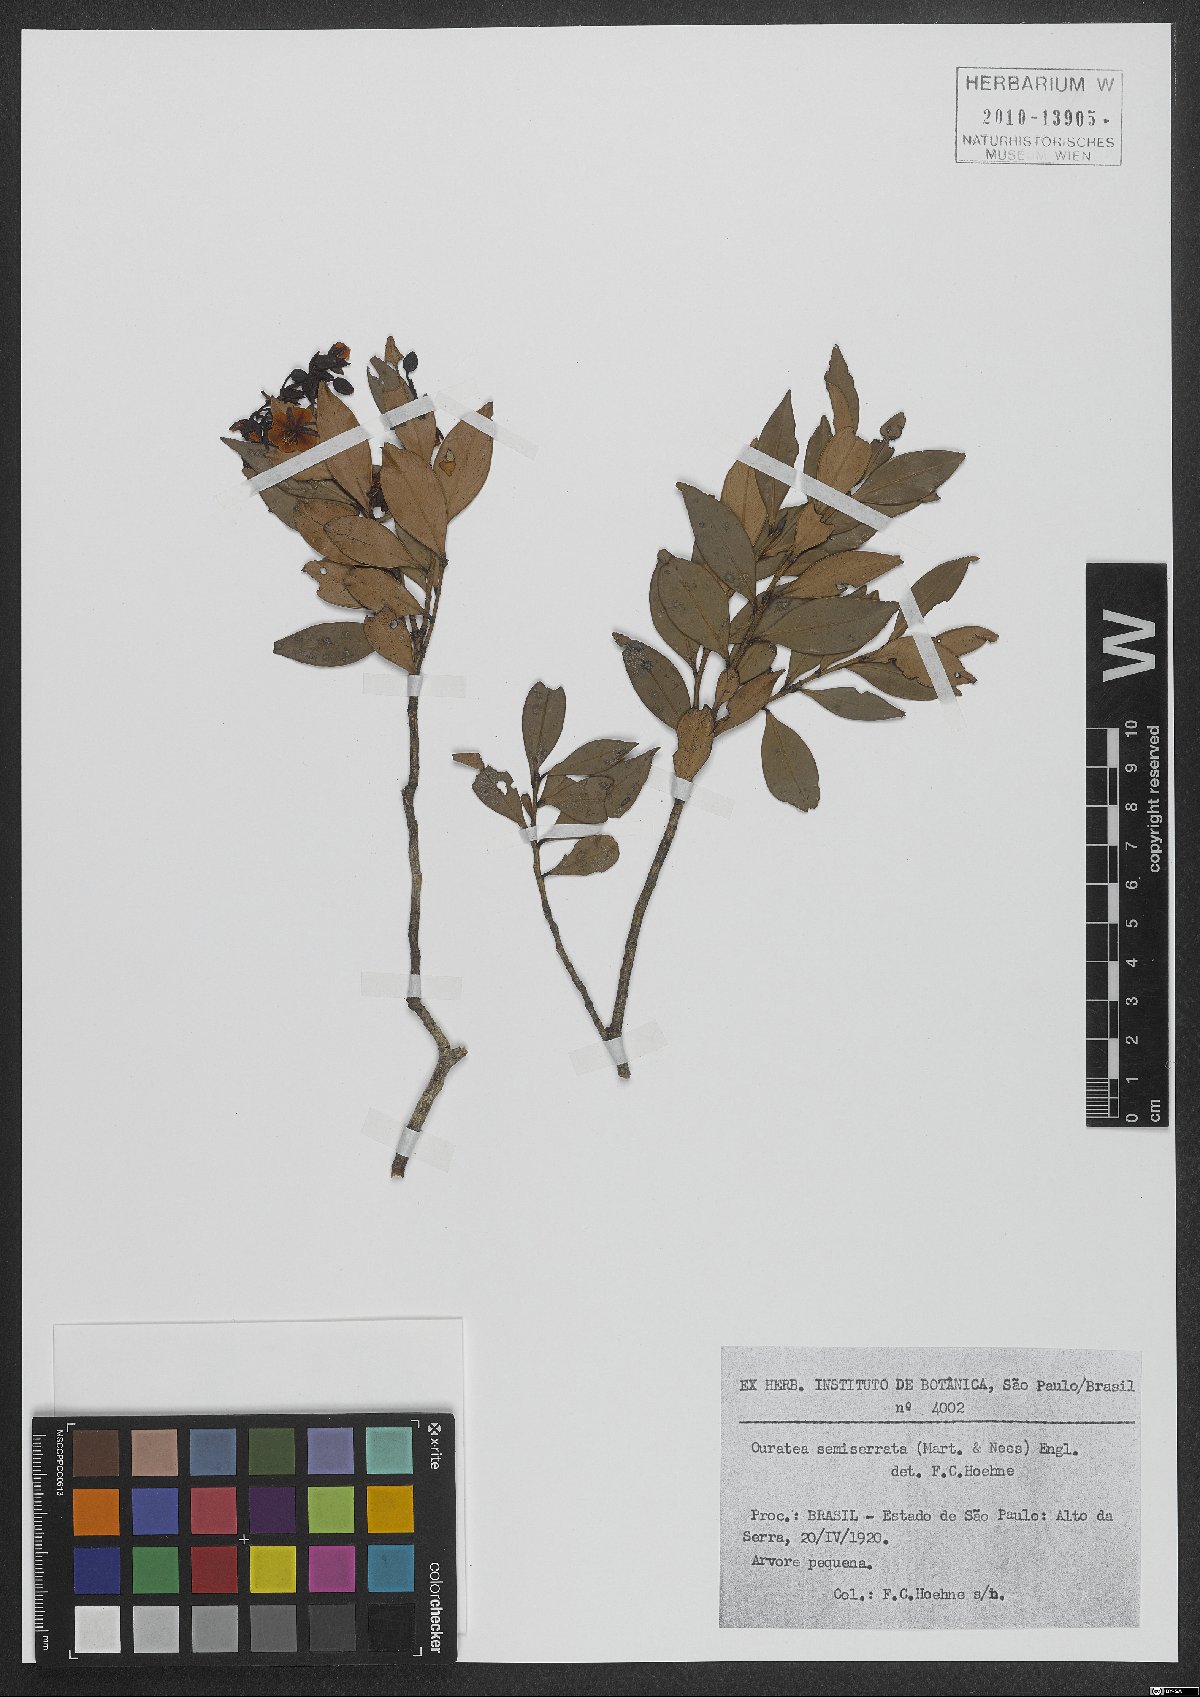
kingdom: Plantae
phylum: Tracheophyta
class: Magnoliopsida
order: Malpighiales
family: Ochnaceae
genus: Ouratea
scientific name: Ouratea semiserrata
